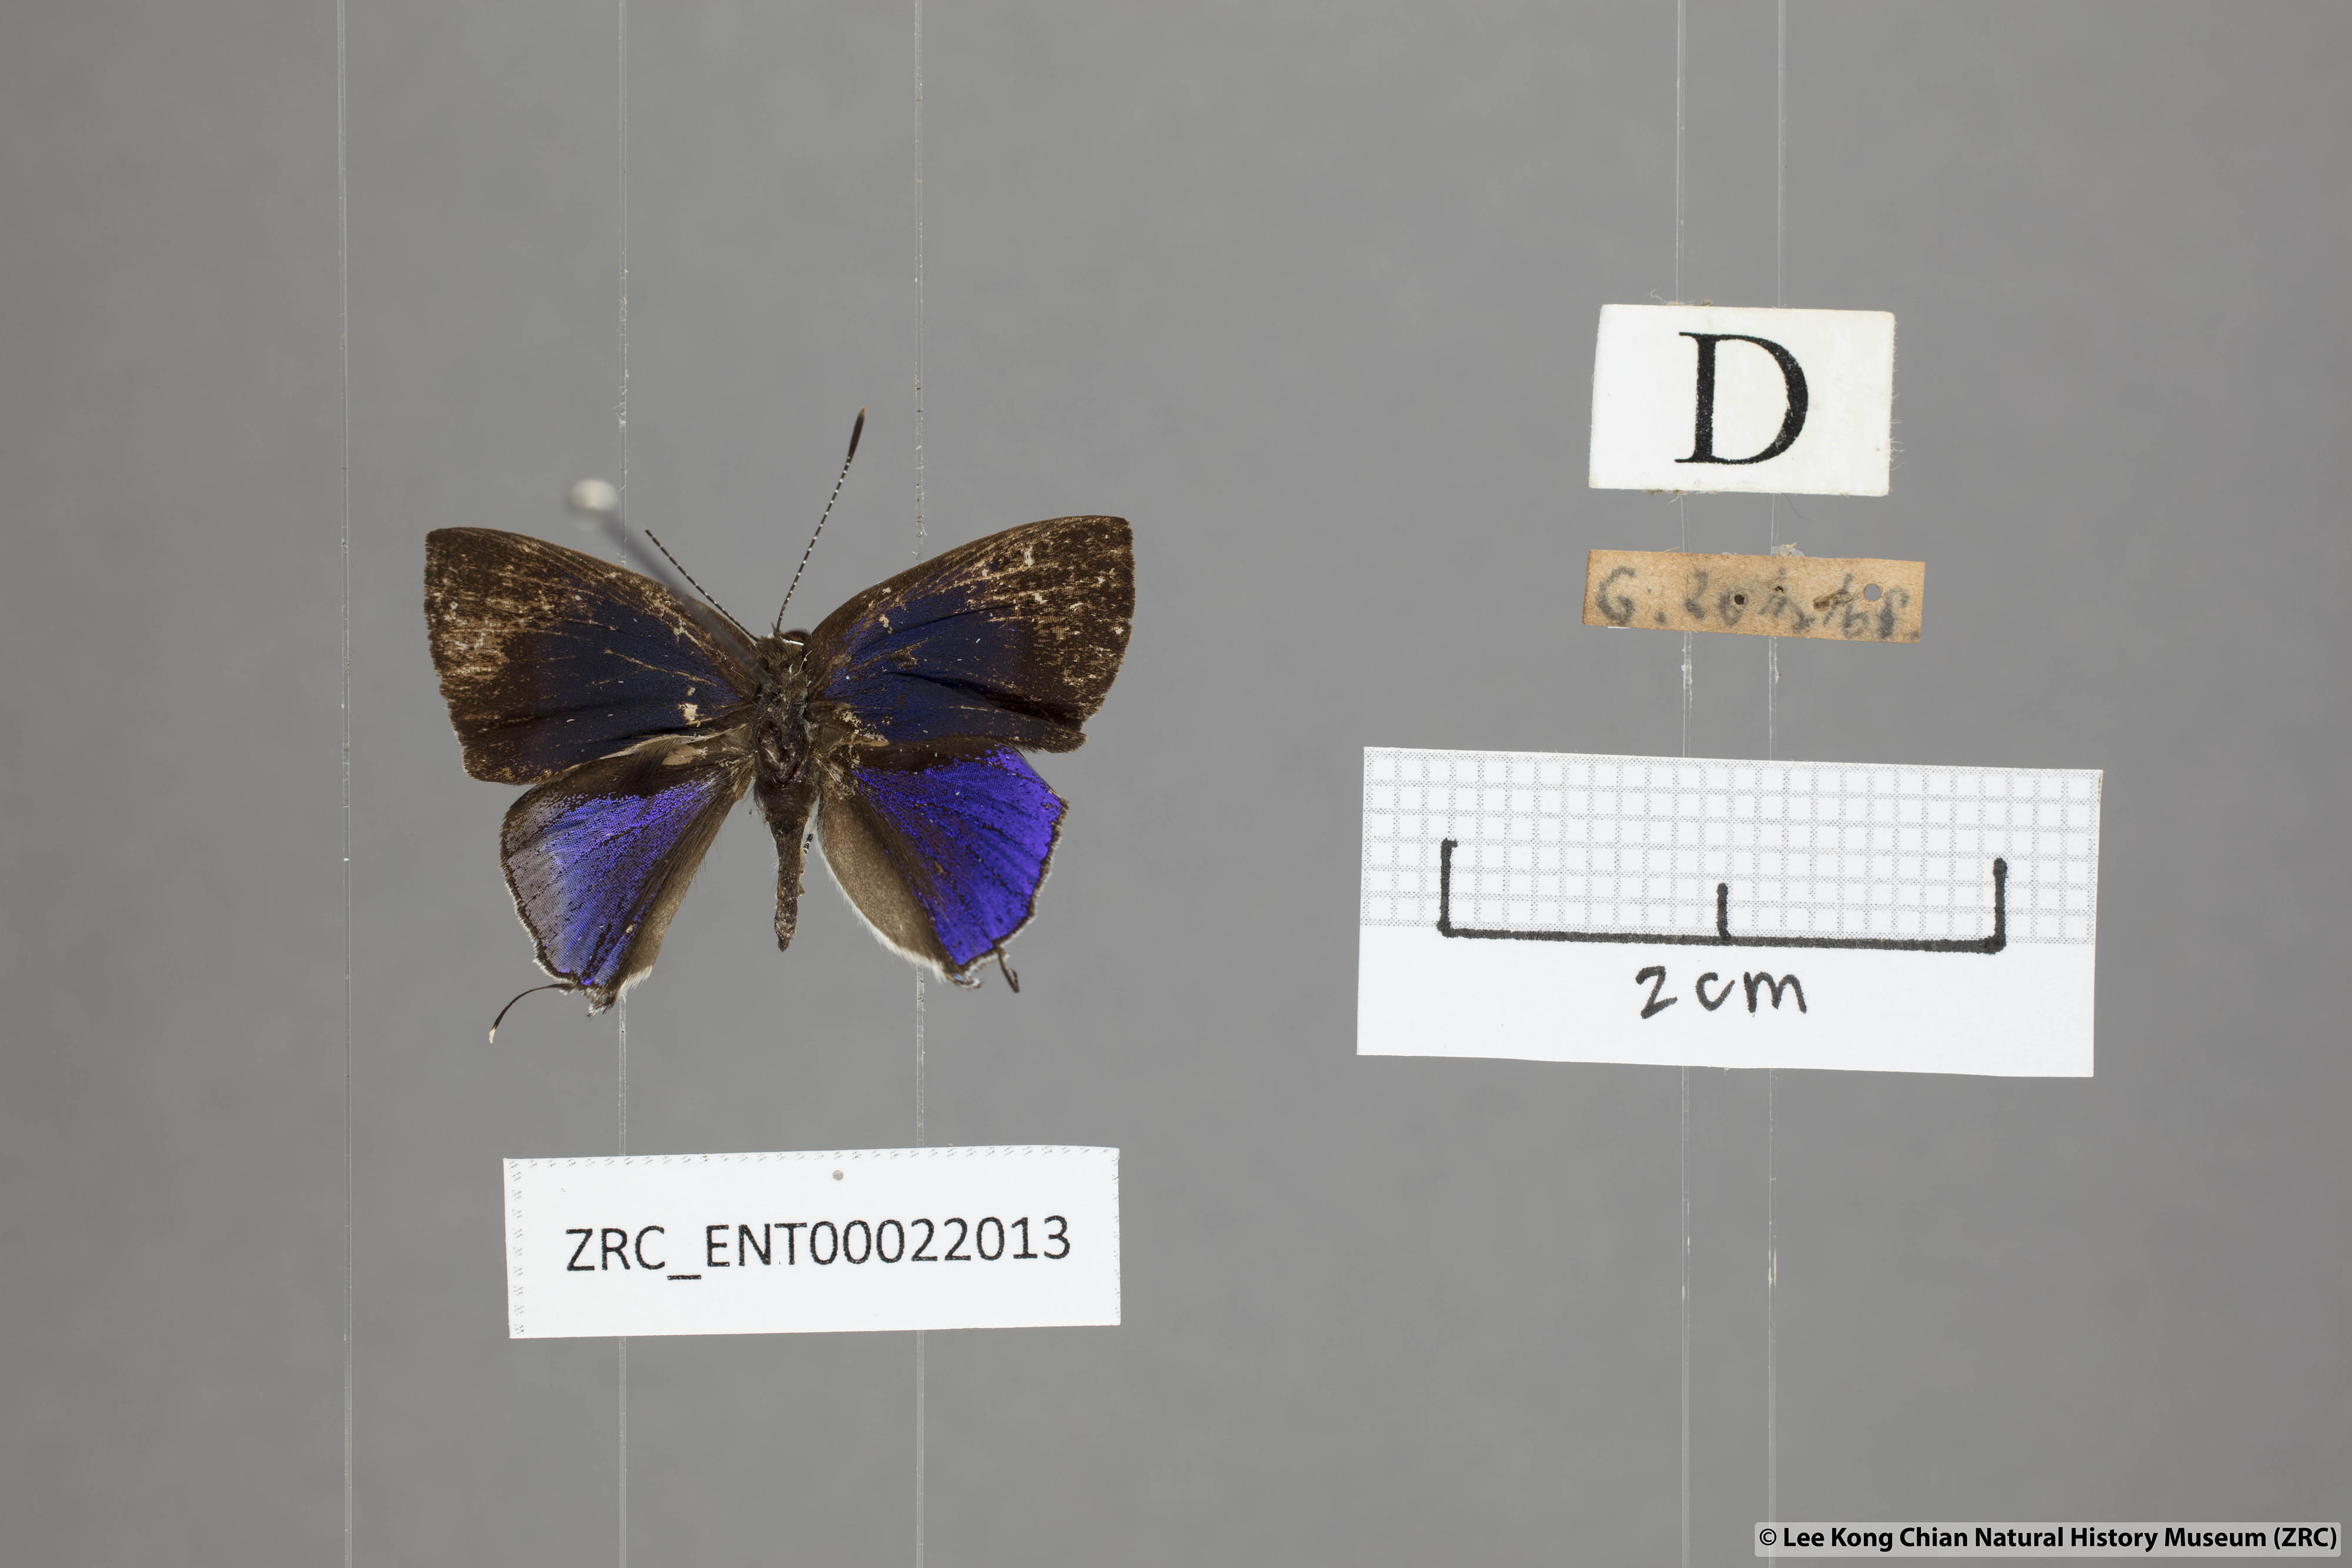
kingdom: Animalia
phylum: Arthropoda
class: Insecta
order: Lepidoptera
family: Lycaenidae
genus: Sinthusa
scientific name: Sinthusa nasaka
